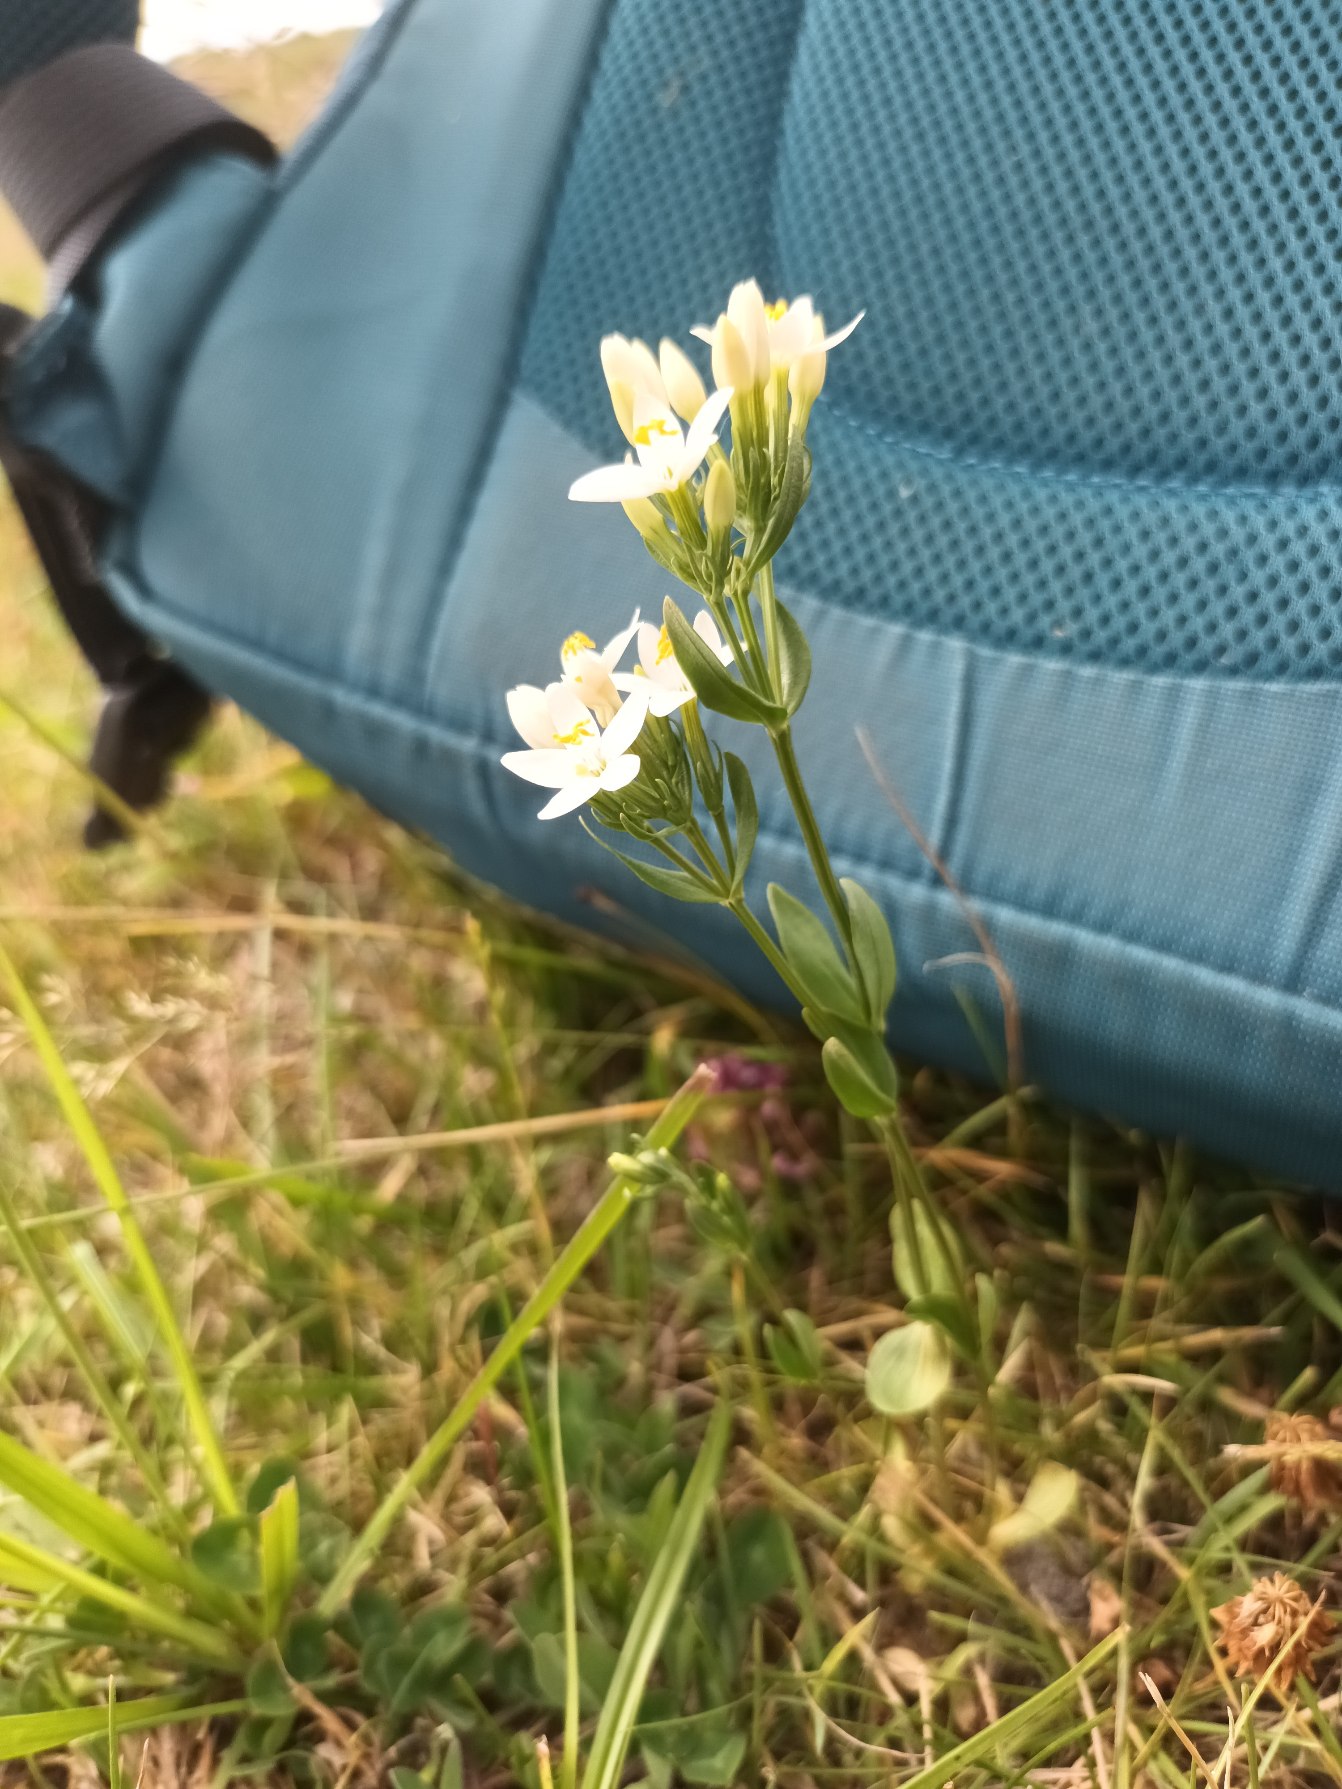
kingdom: Plantae
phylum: Tracheophyta
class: Magnoliopsida
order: Gentianales
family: Gentianaceae
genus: Centaurium
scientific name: Centaurium erythraea
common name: Mark-tusindgylden
